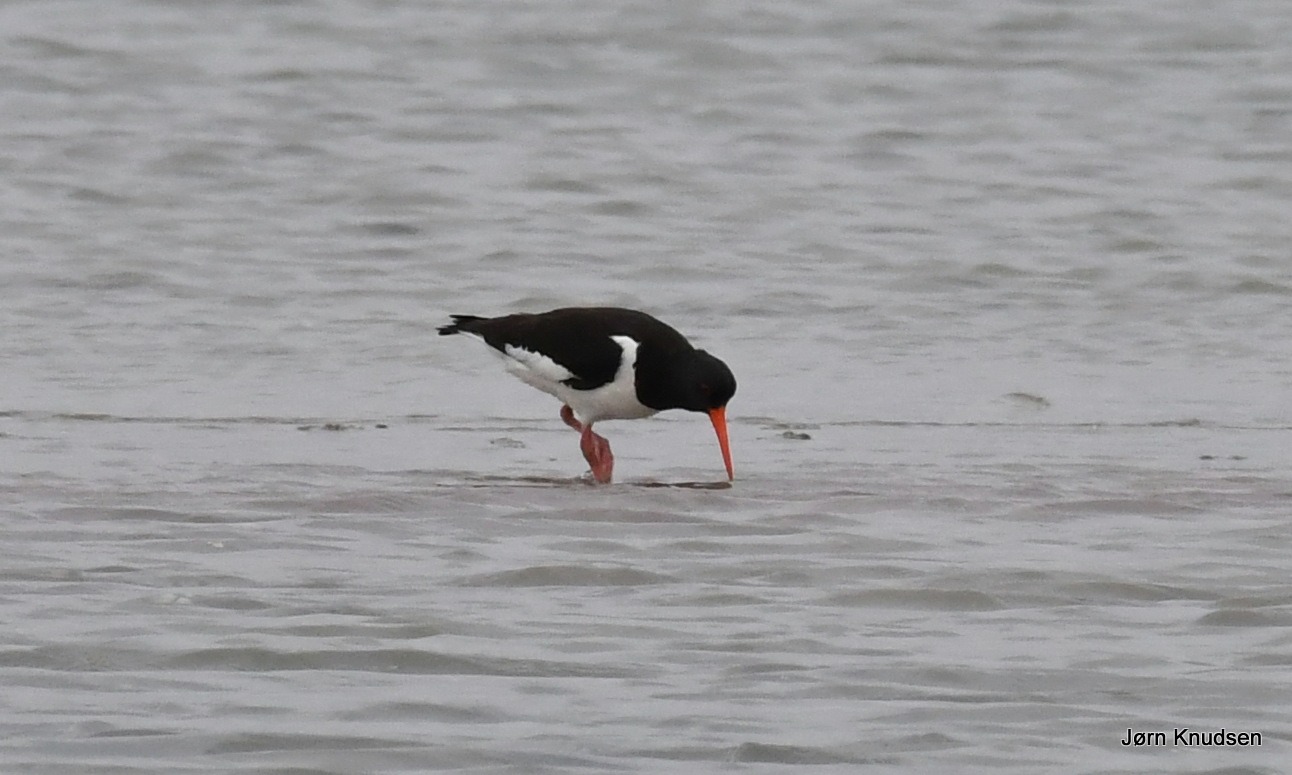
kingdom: Animalia
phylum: Chordata
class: Aves
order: Charadriiformes
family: Haematopodidae
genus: Haematopus
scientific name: Haematopus ostralegus
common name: Strandskade
